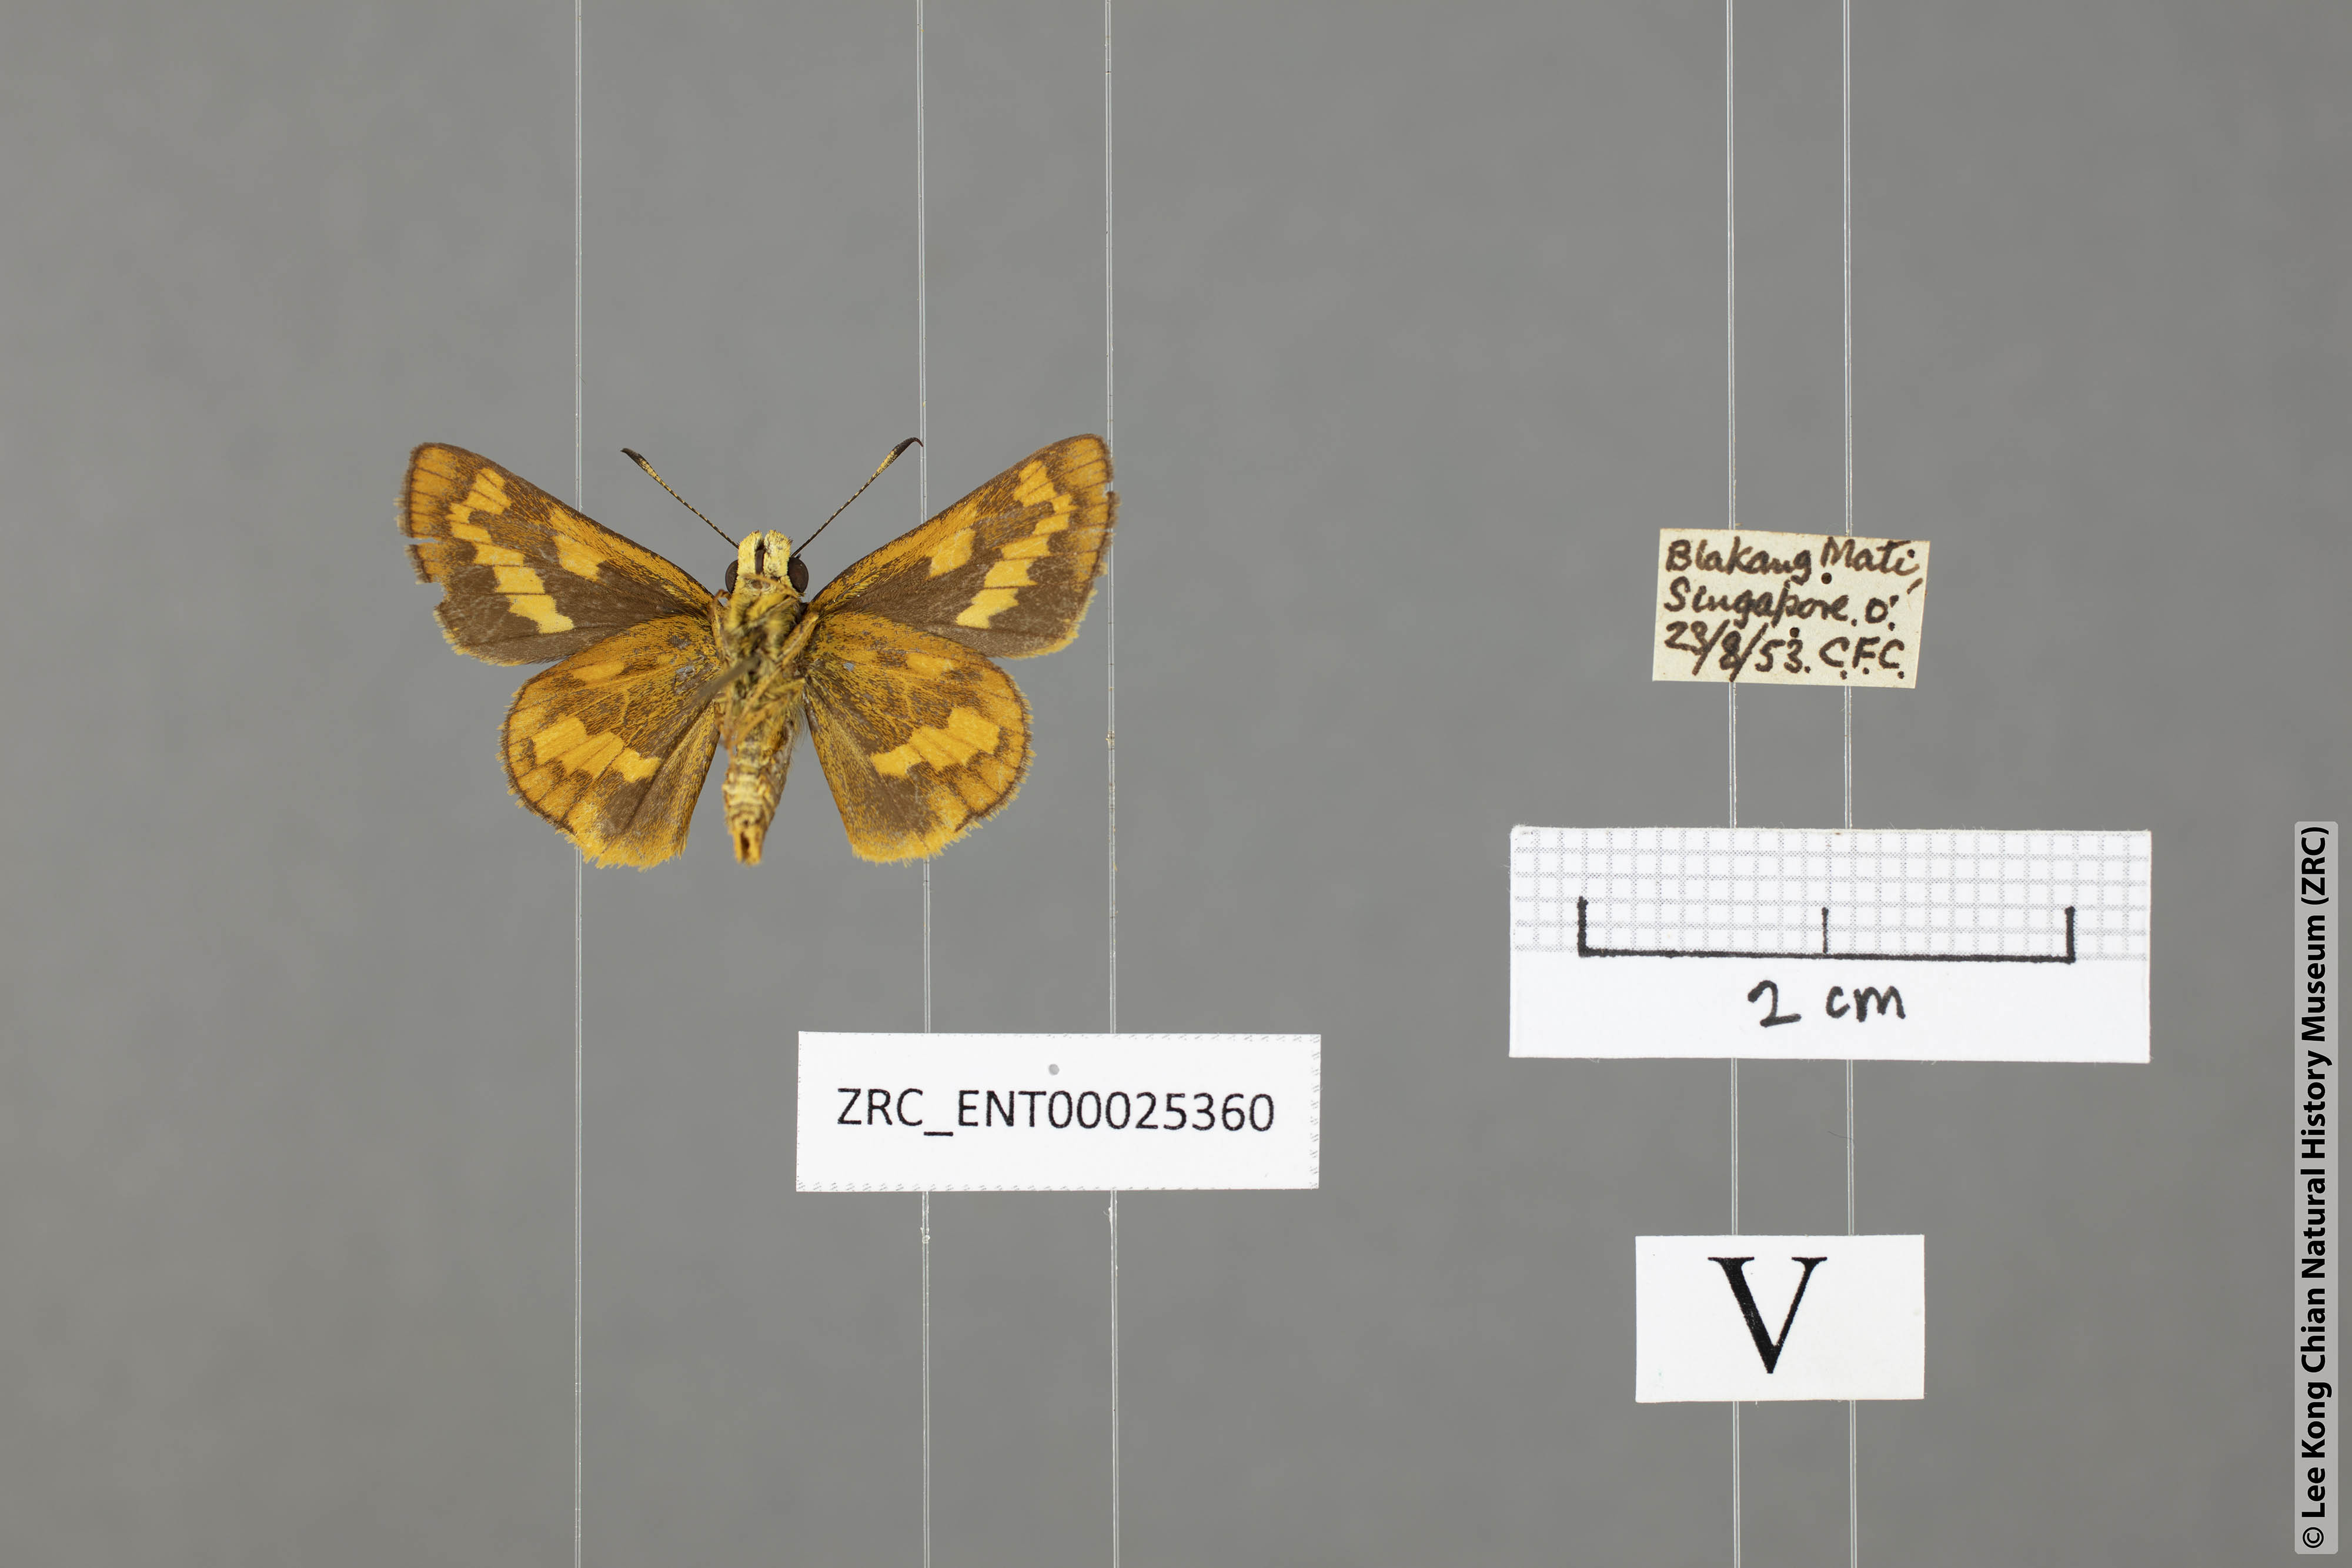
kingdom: Animalia
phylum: Arthropoda
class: Insecta
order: Lepidoptera
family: Hesperiidae
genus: Potanthus
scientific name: Potanthus
